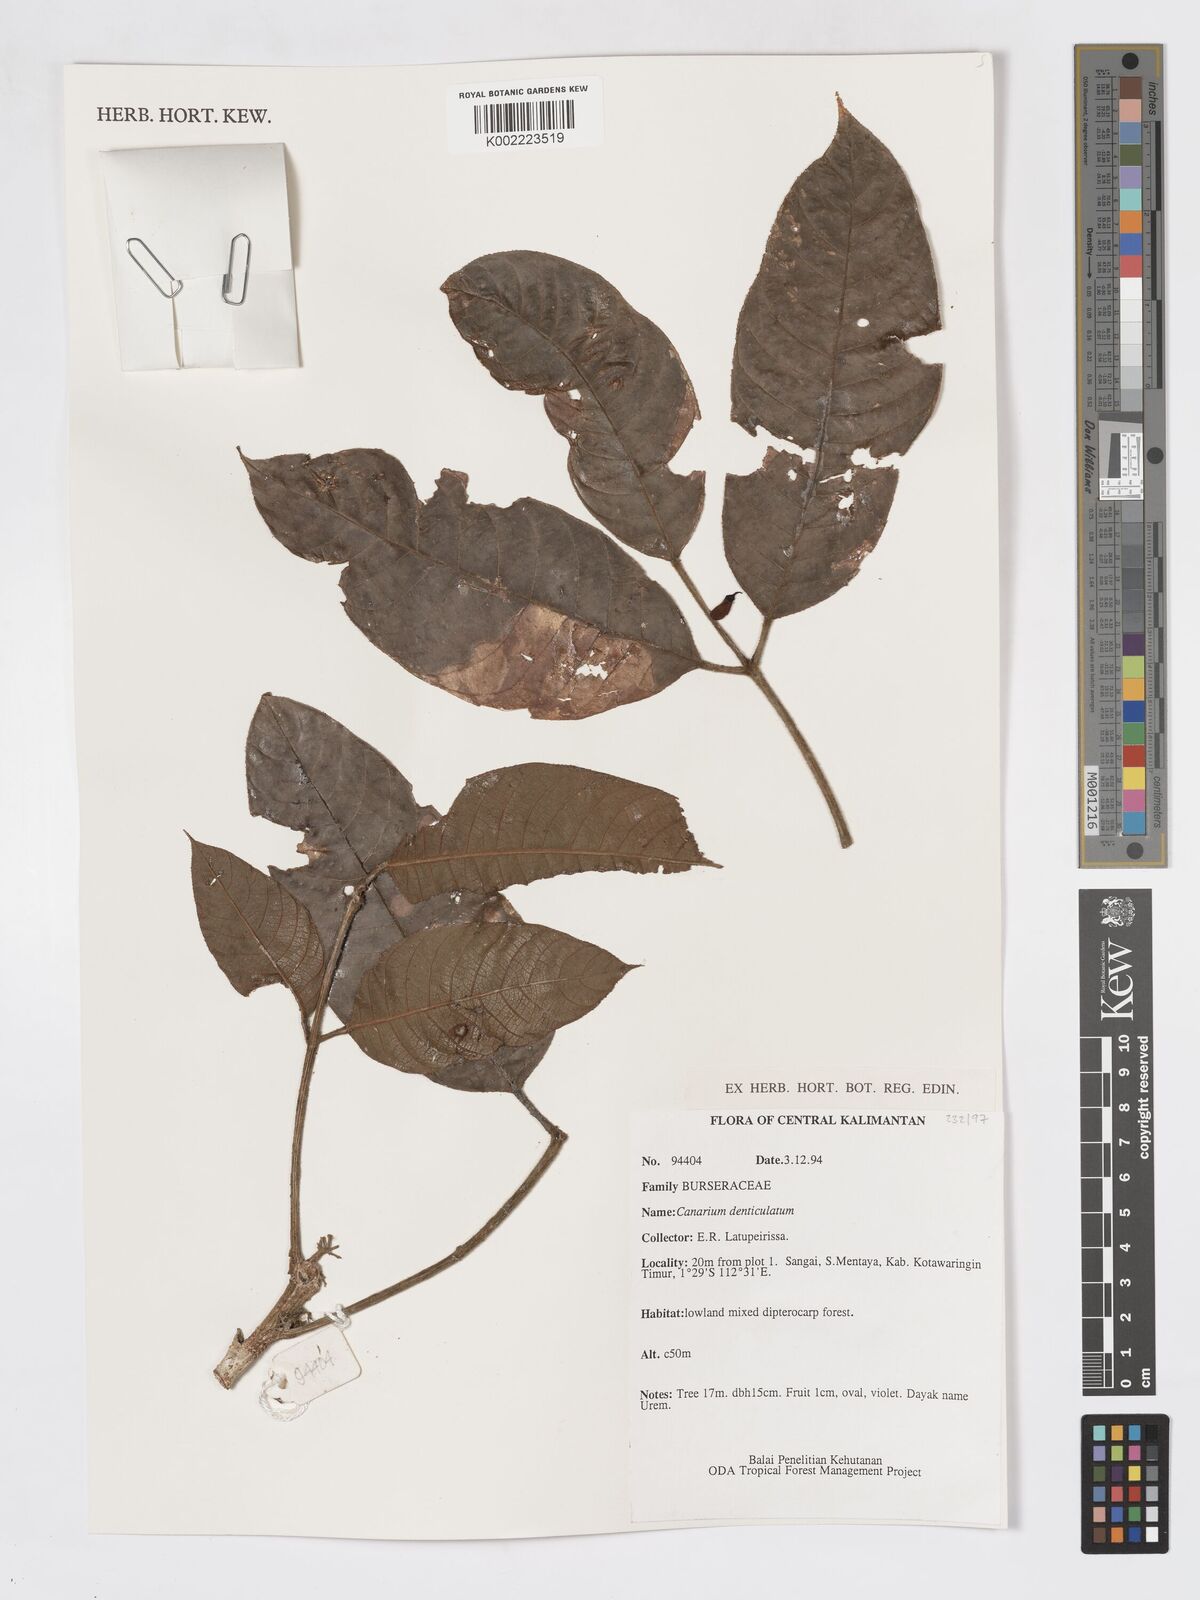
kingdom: Plantae
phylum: Tracheophyta
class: Magnoliopsida
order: Sapindales
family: Burseraceae
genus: Canarium
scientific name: Canarium denticulatum
